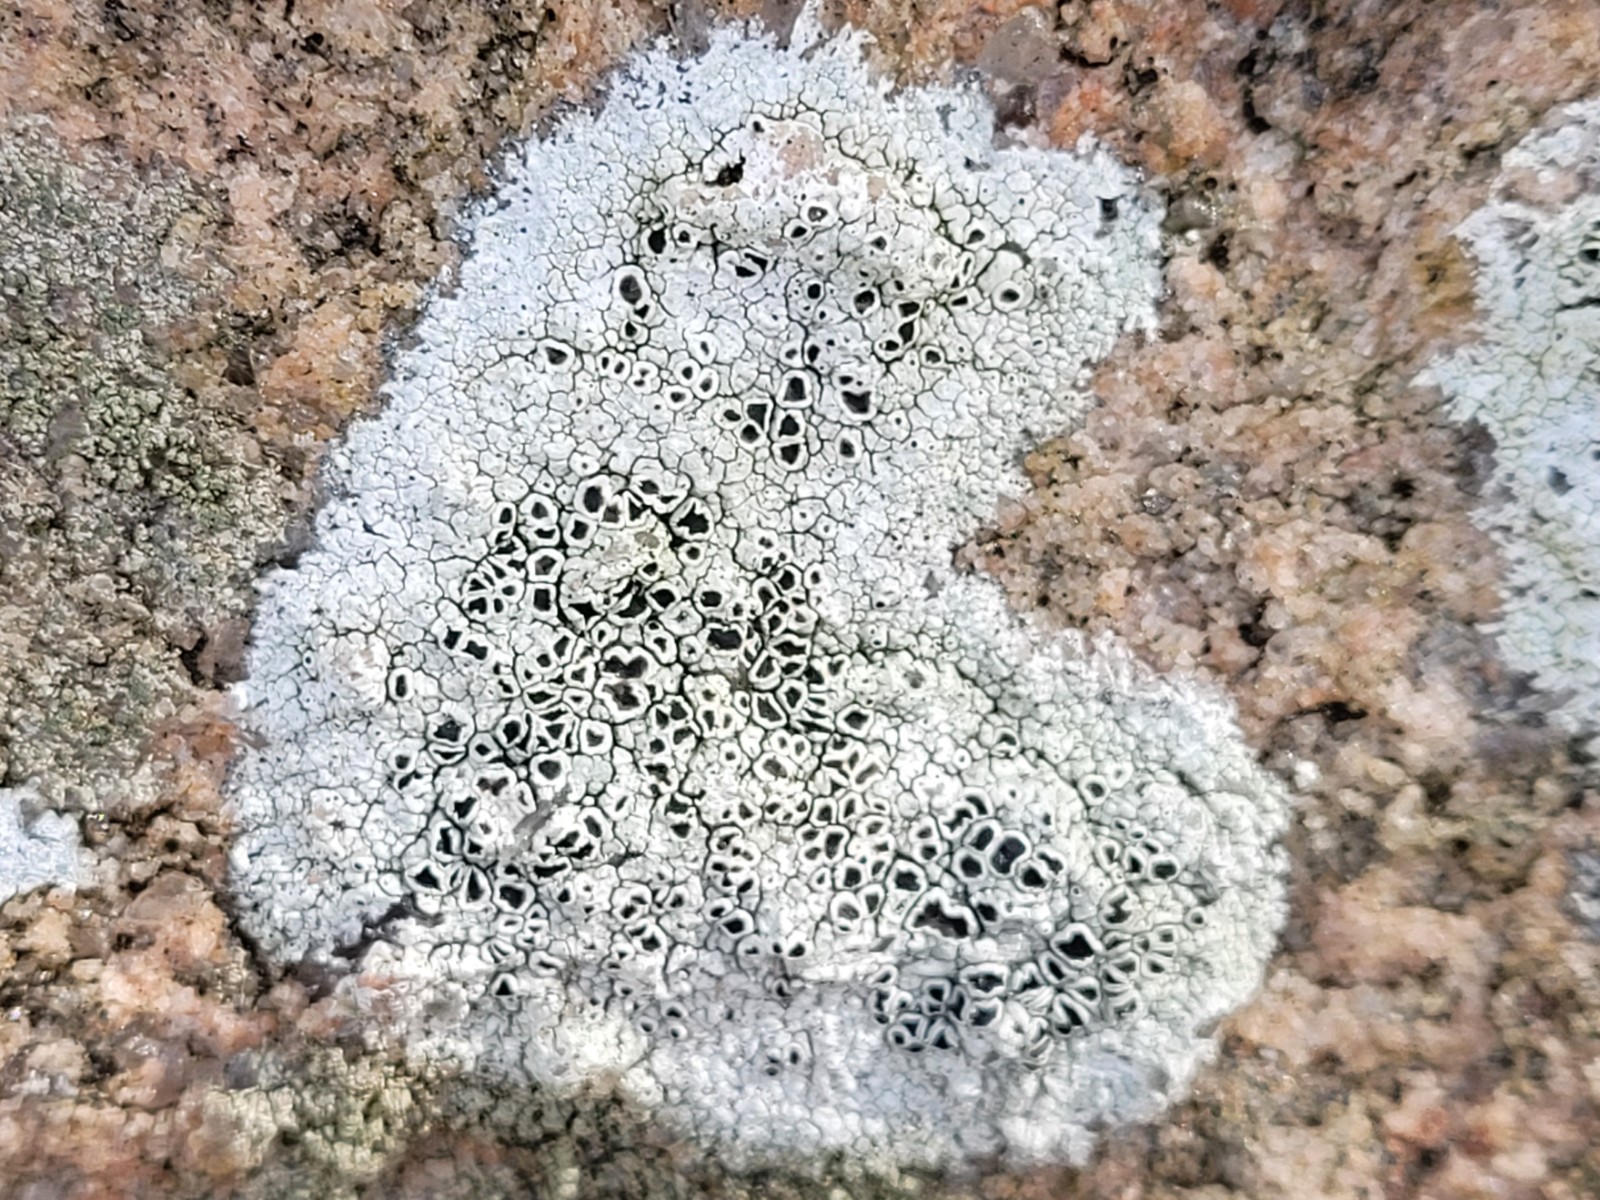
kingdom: Fungi
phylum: Ascomycota
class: Lecanoromycetes
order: Lecanorales
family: Tephromelataceae
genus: Tephromela
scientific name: Tephromela atra
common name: sortfrugtet kantskivelav
